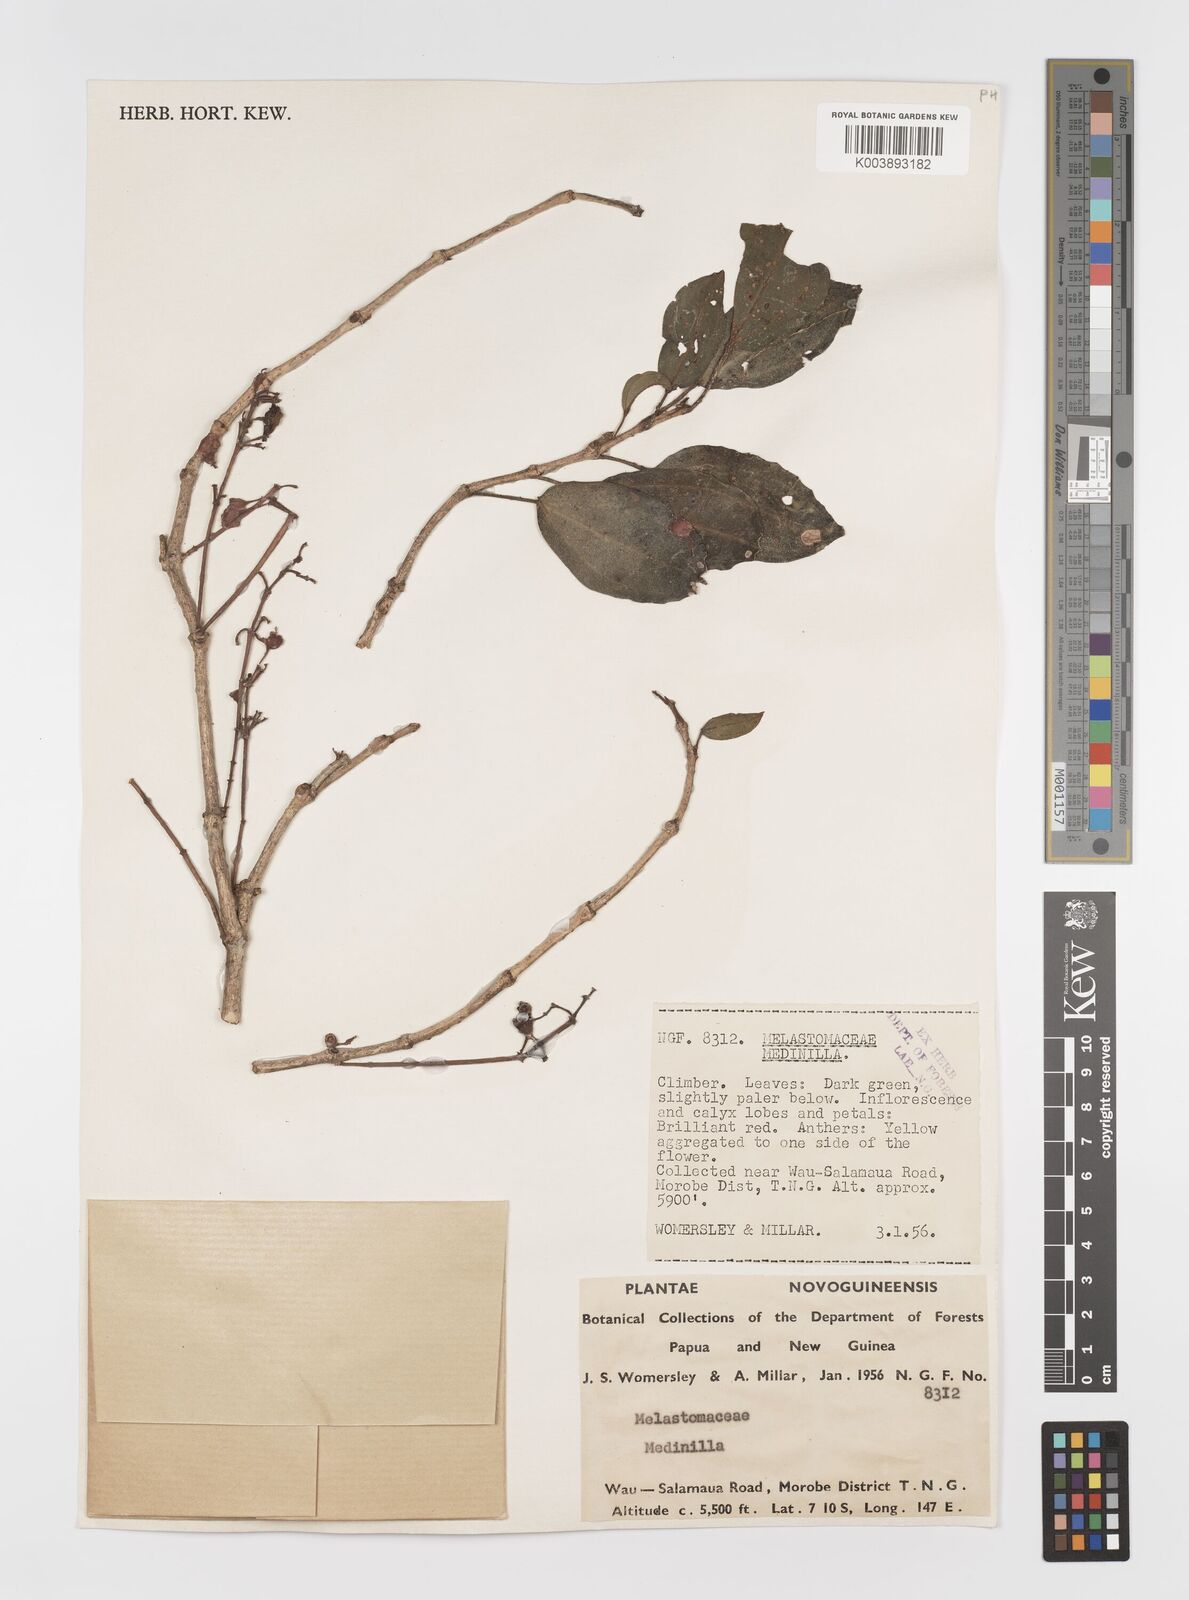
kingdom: Plantae
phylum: Tracheophyta
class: Magnoliopsida
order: Myrtales
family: Melastomataceae
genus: Medinilla
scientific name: Medinilla
